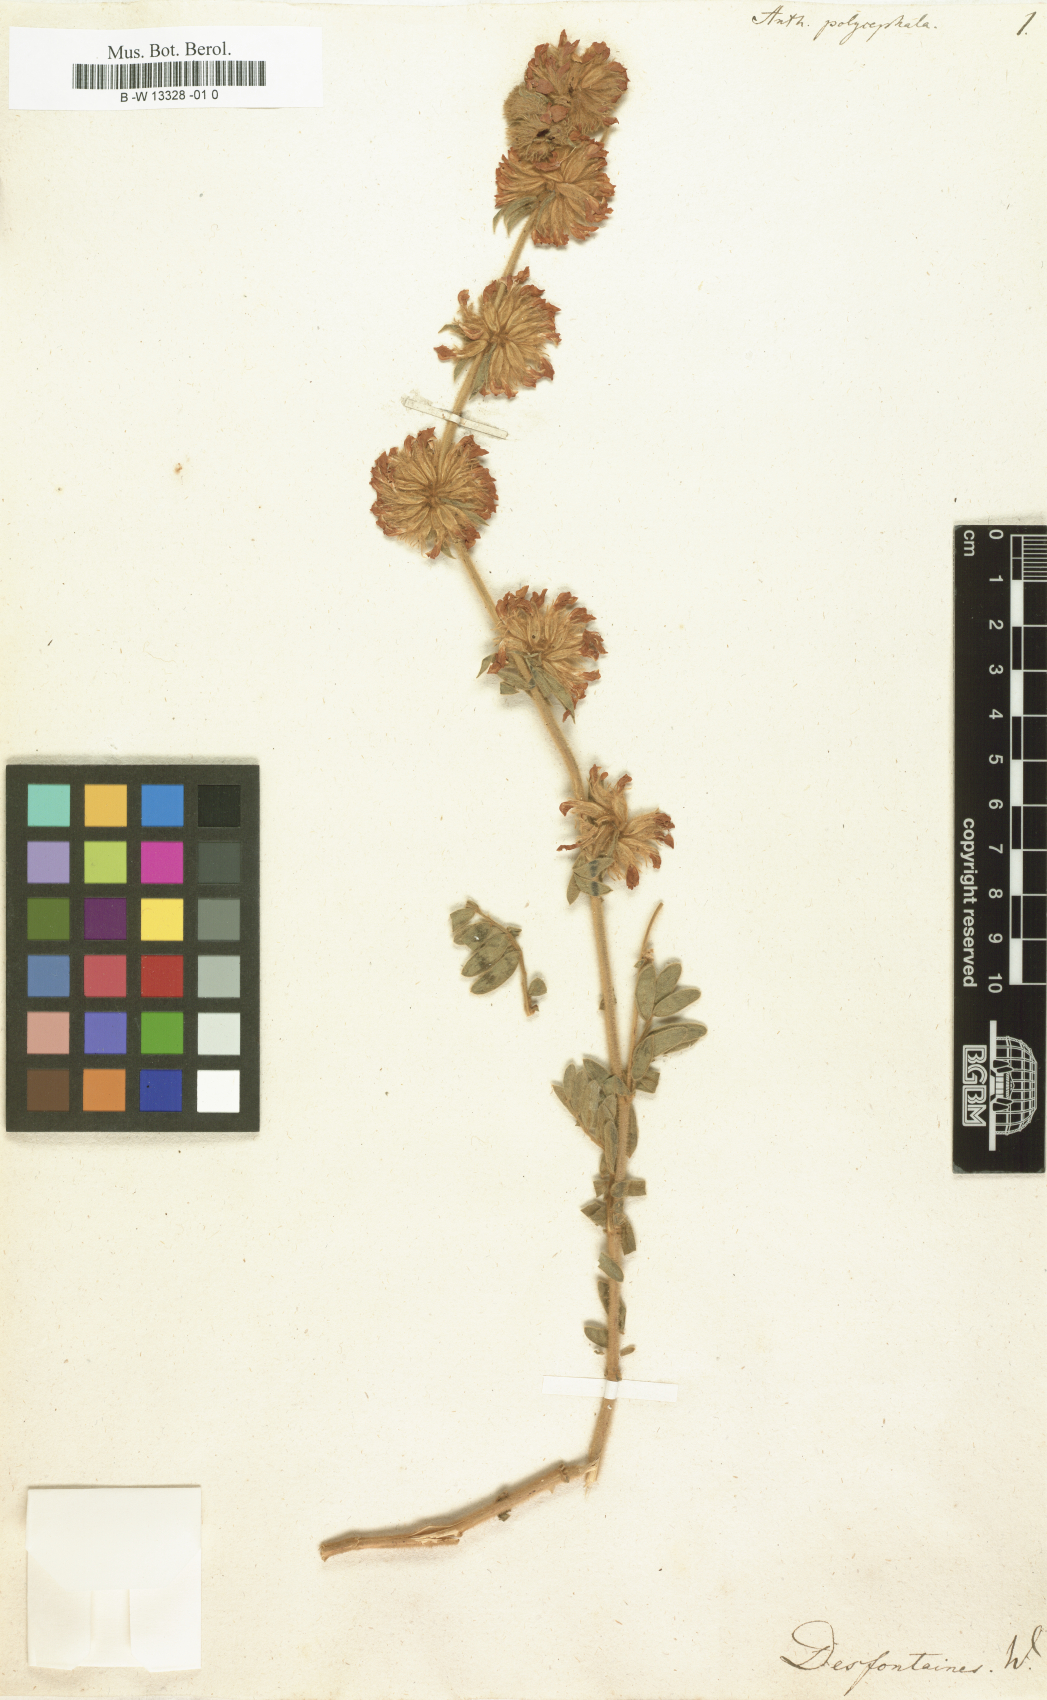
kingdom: Plantae
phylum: Tracheophyta
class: Magnoliopsida
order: Fabales
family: Fabaceae
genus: Anthyllis
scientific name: Anthyllis polycephala
